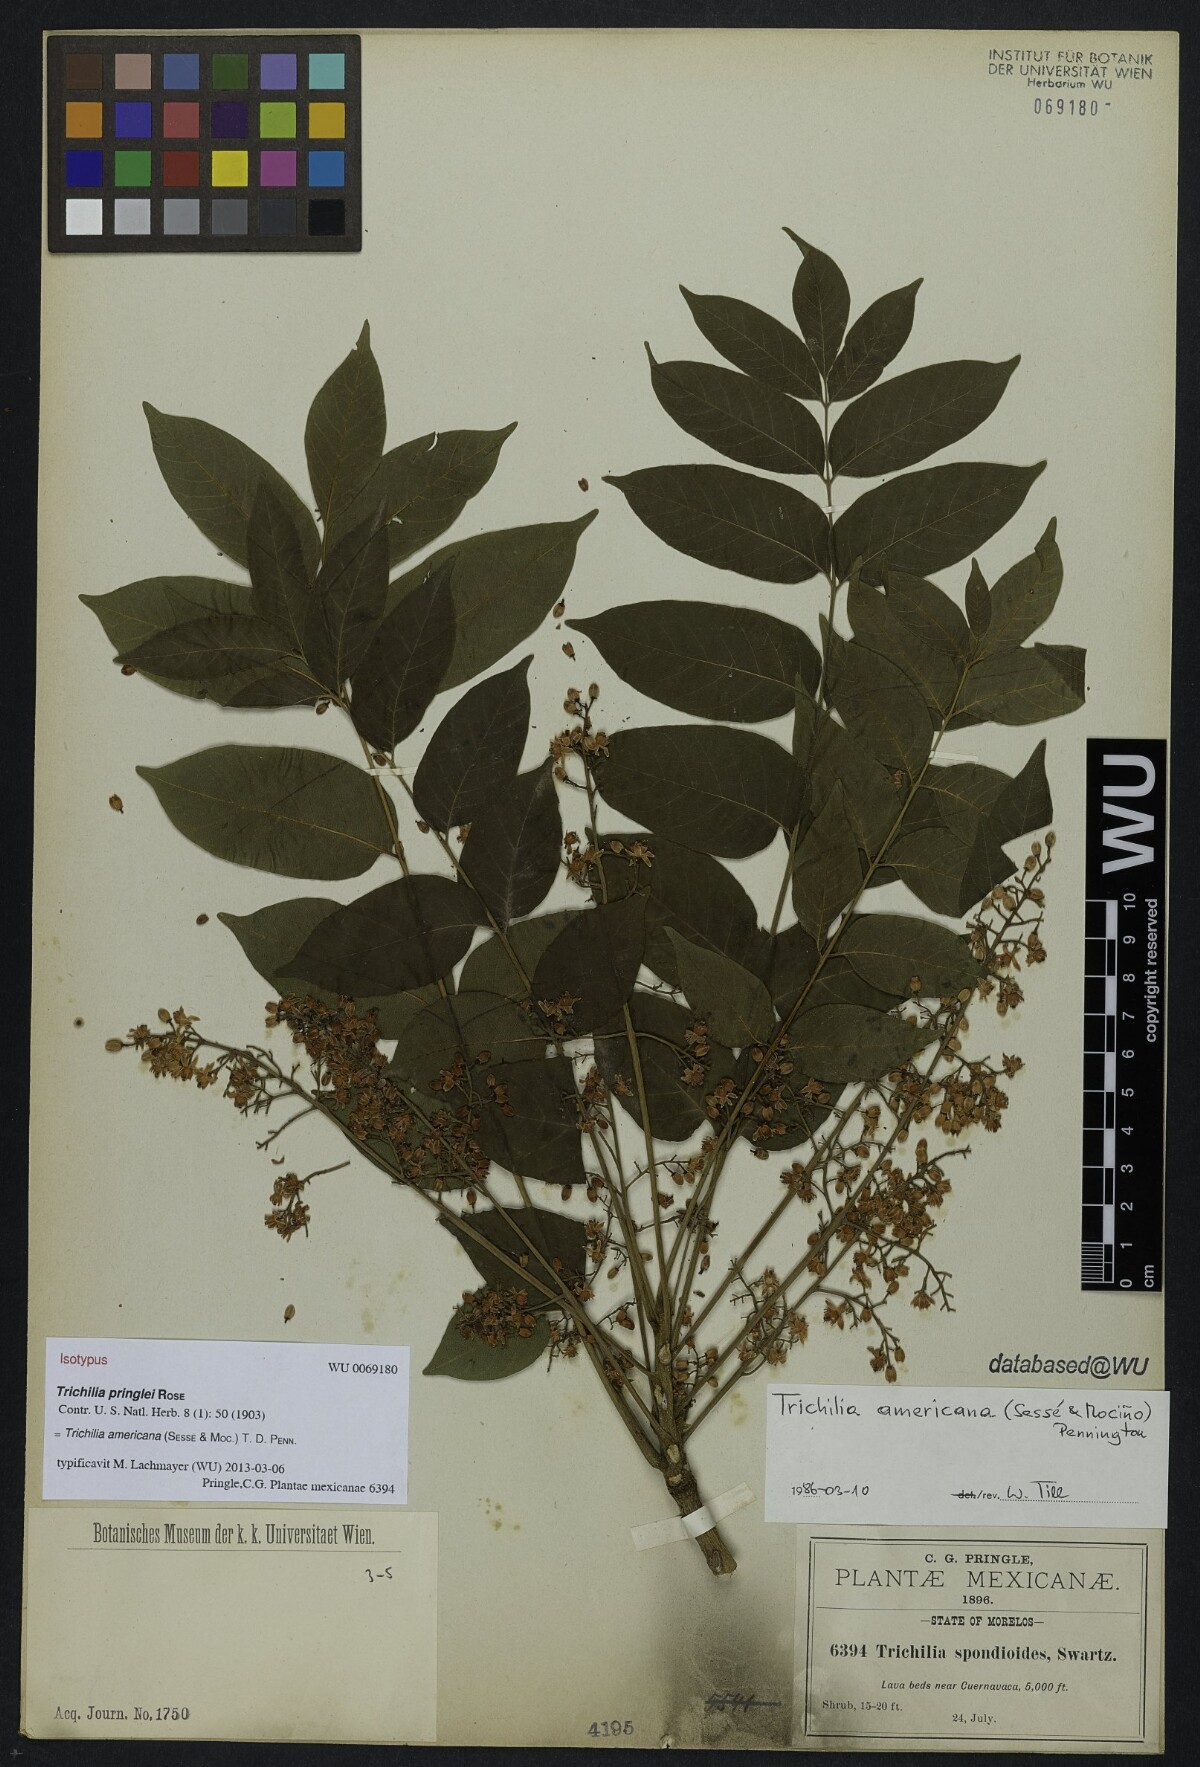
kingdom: Plantae
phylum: Tracheophyta
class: Magnoliopsida
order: Sapindales
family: Meliaceae
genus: Trichilia
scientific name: Trichilia americana
